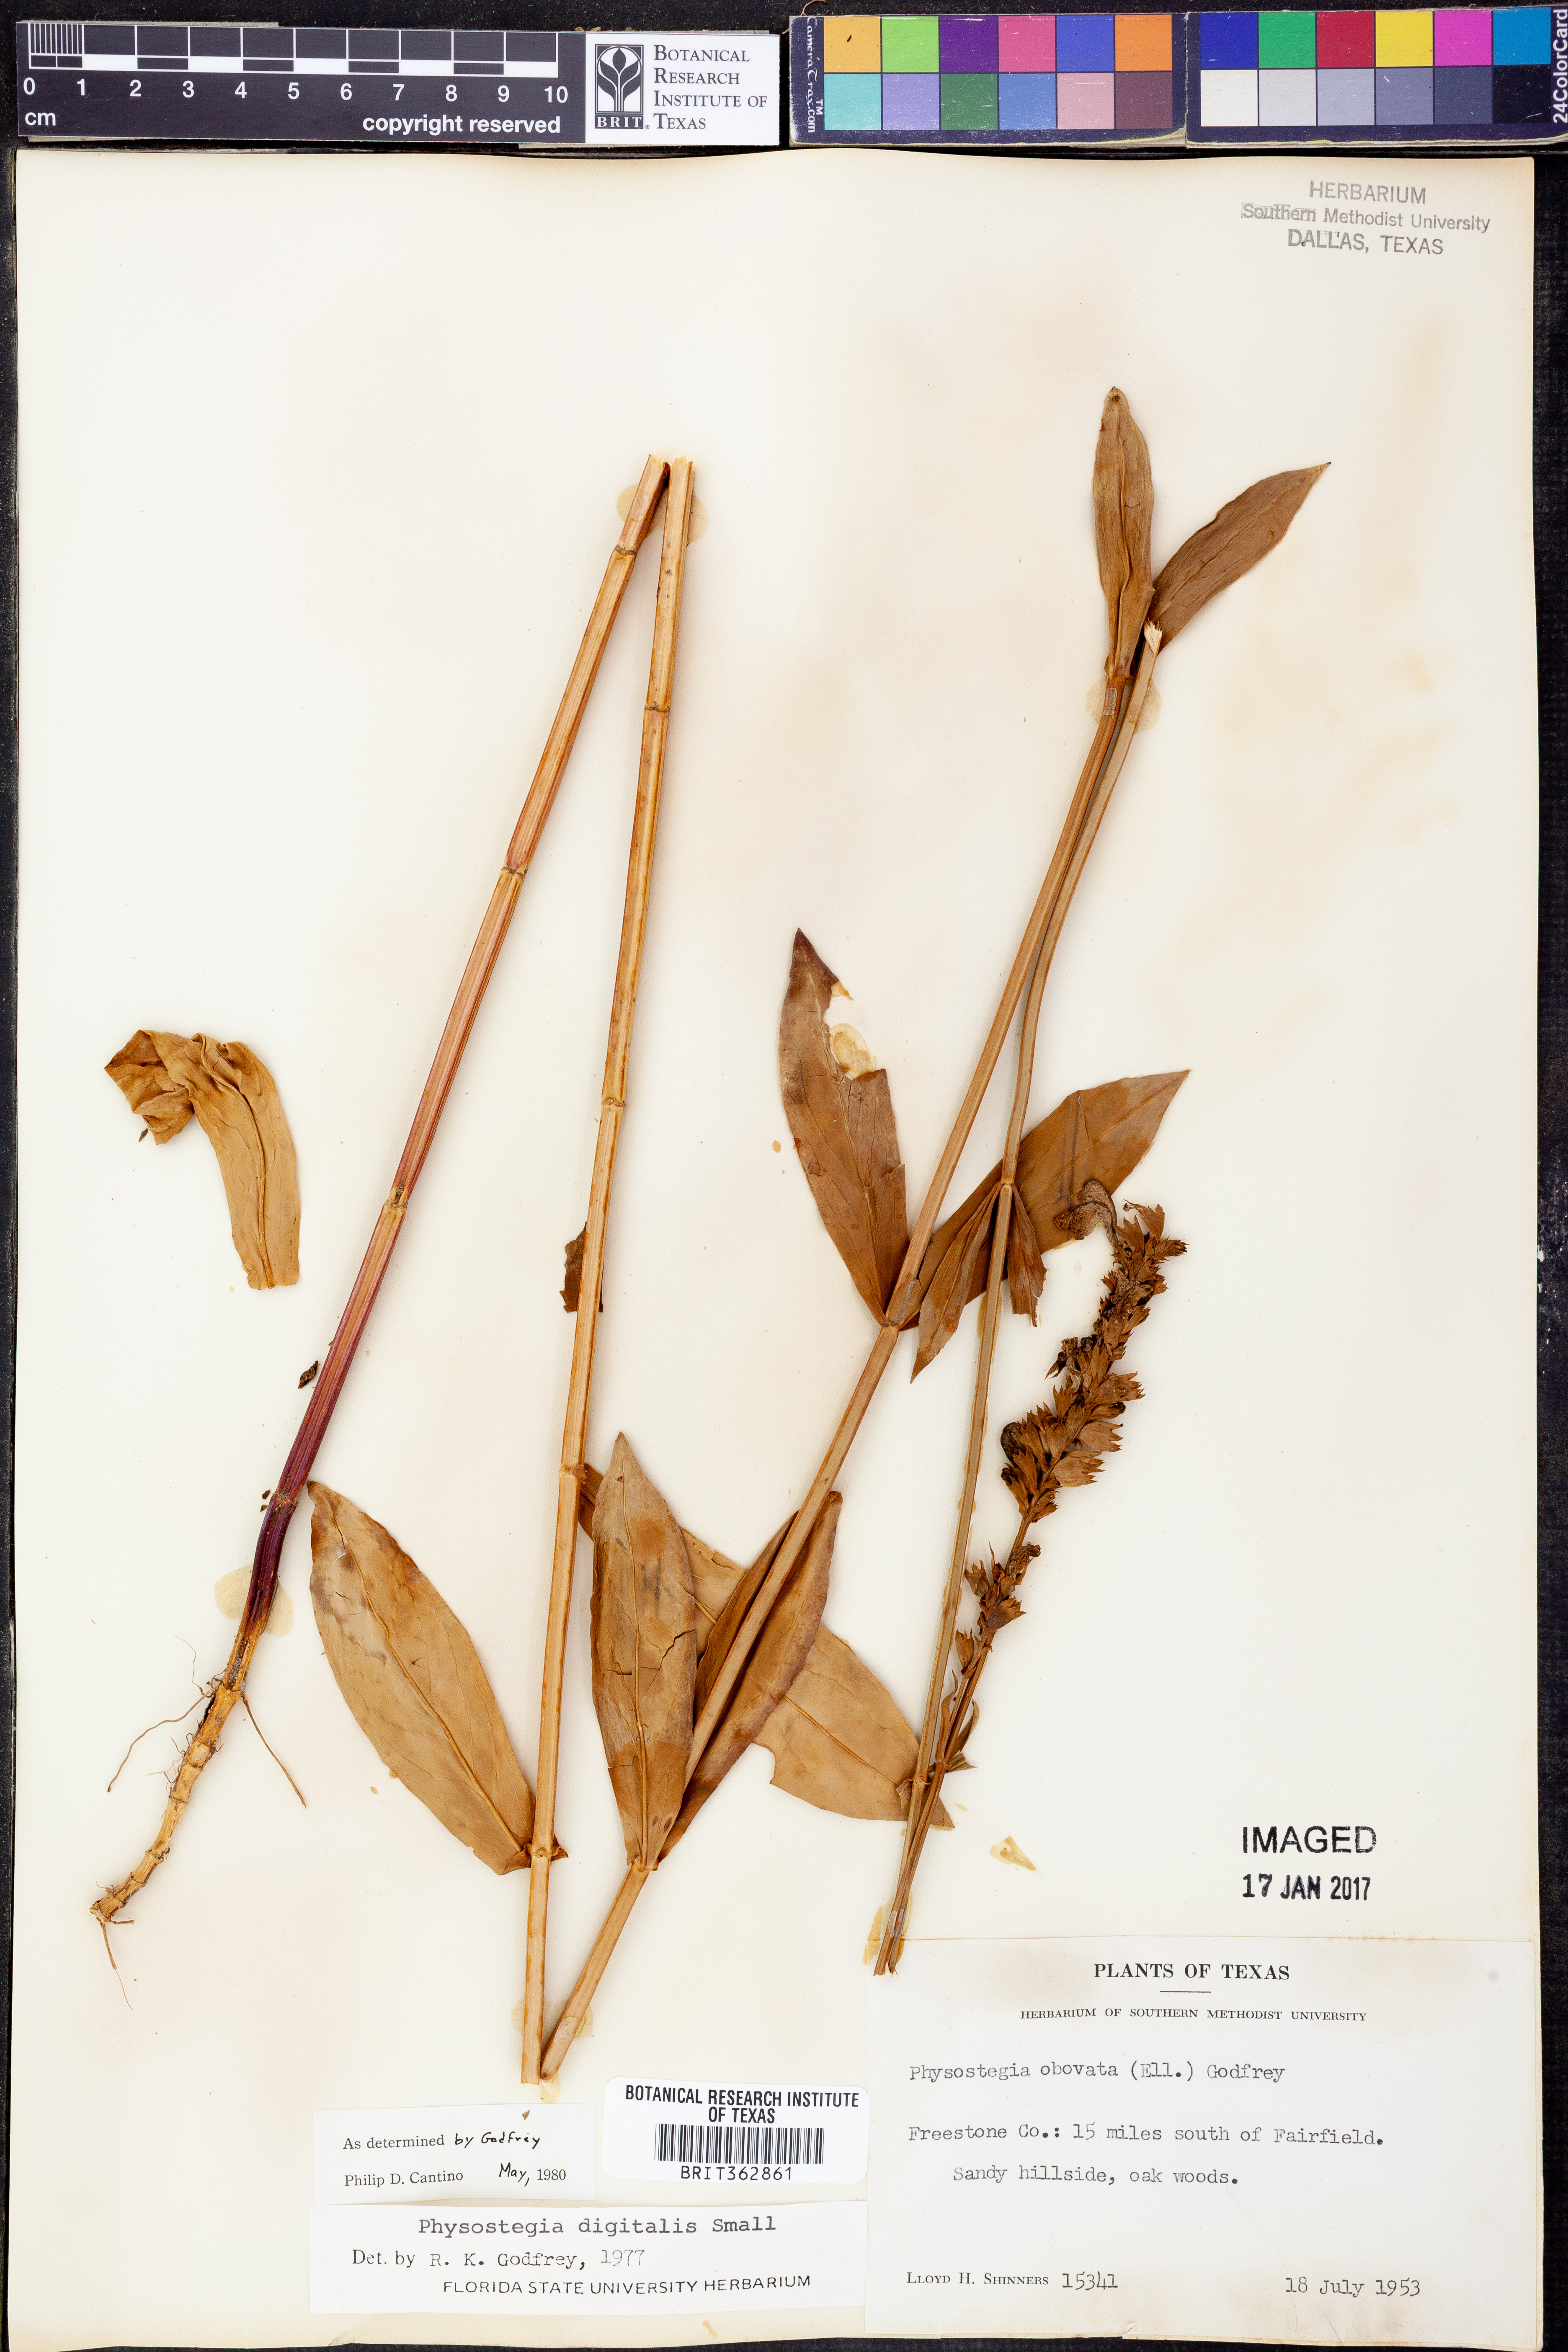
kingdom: Plantae
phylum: Tracheophyta
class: Magnoliopsida
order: Lamiales
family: Lamiaceae
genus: Physostegia
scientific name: Physostegia purpurea
